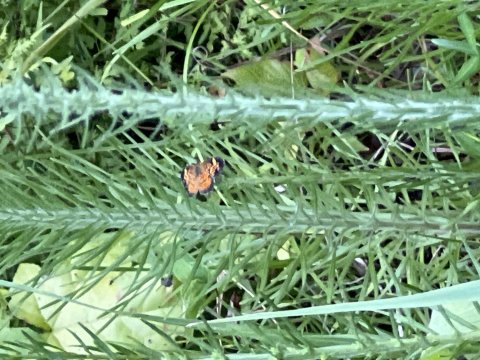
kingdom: Animalia
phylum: Arthropoda
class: Insecta
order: Lepidoptera
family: Nymphalidae
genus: Phyciodes
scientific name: Phyciodes tharos
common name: Pearl Crescent
